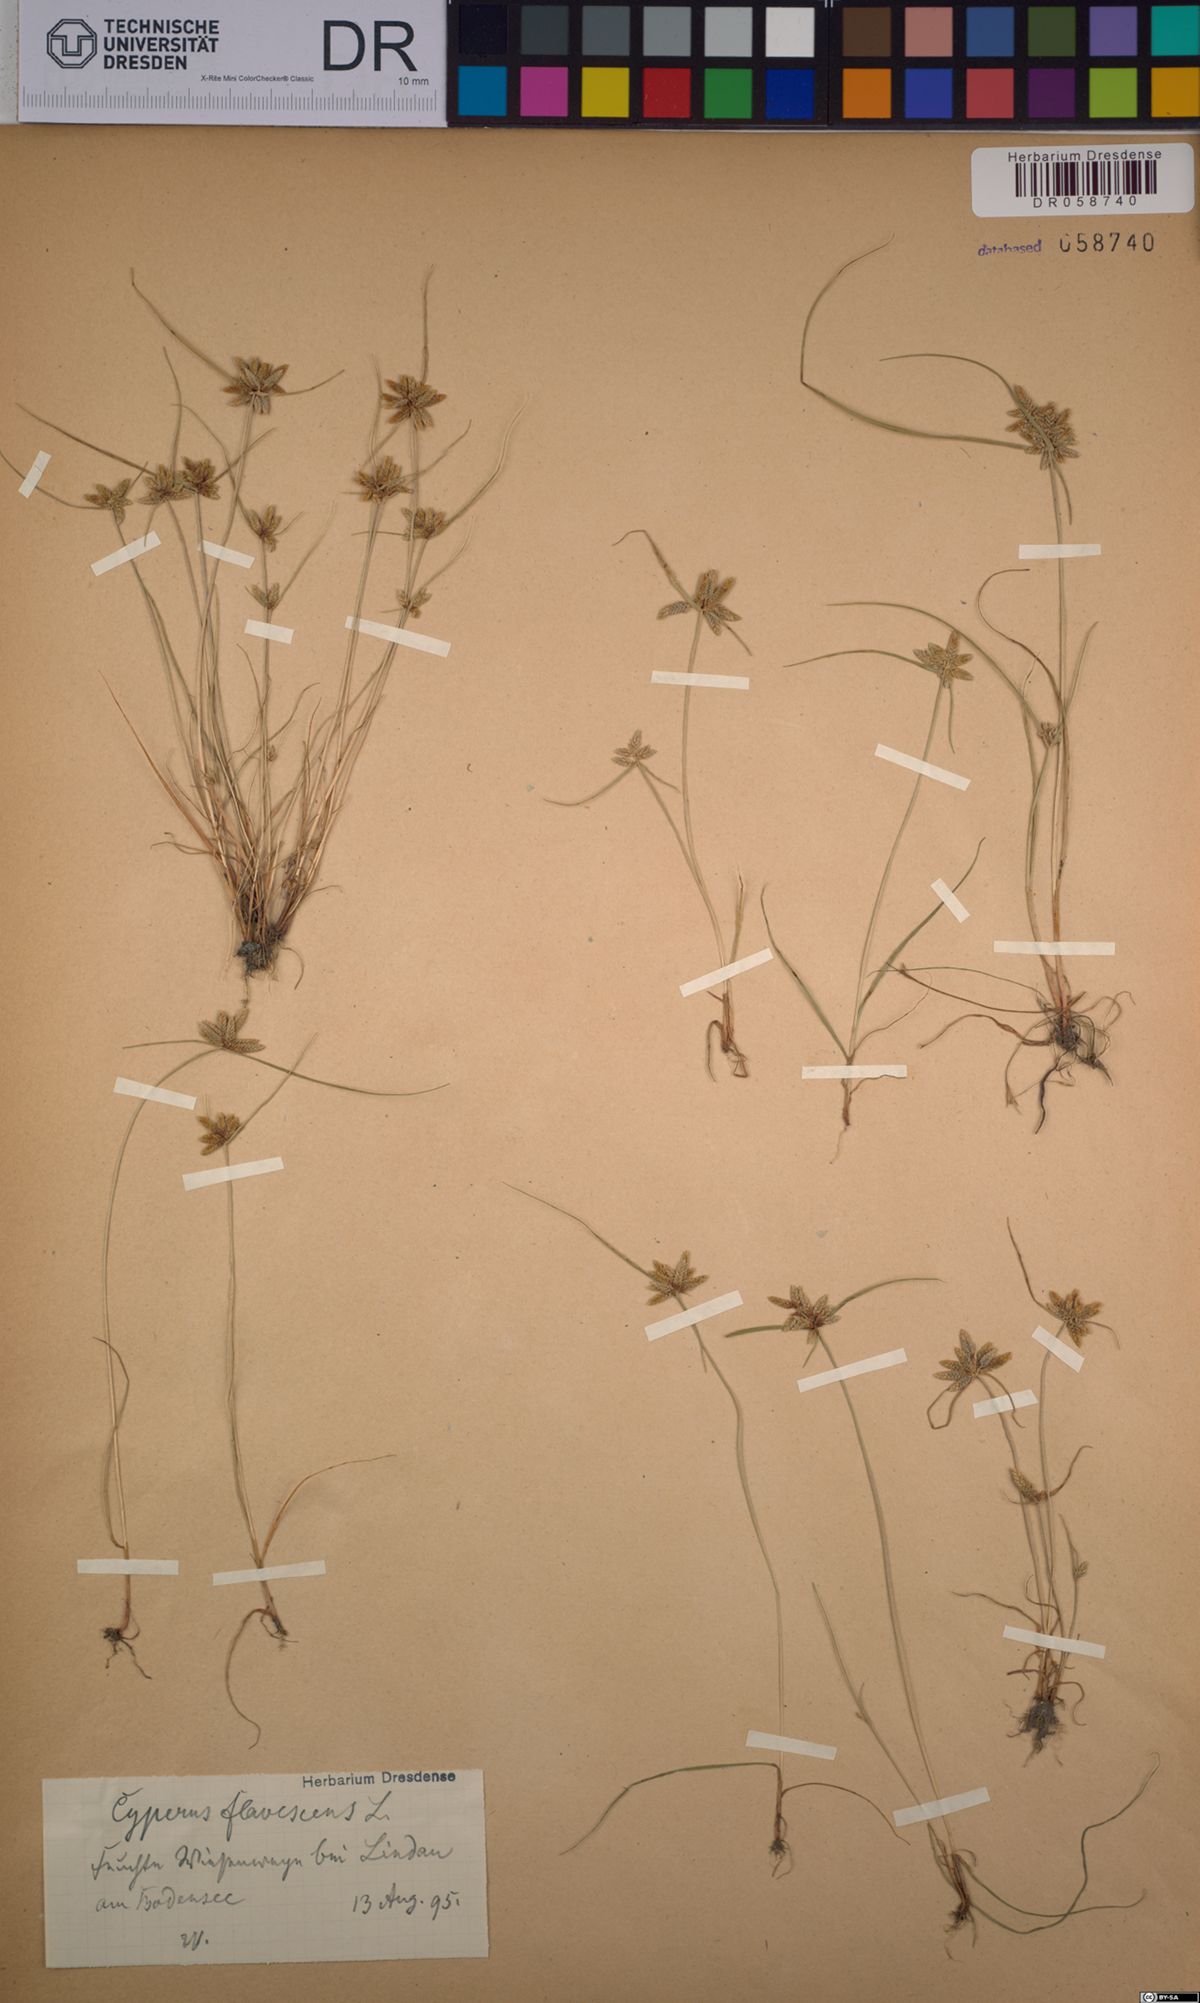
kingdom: Plantae
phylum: Tracheophyta
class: Liliopsida
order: Poales
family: Cyperaceae
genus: Cyperus
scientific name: Cyperus flavescens
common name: Yellow galingale
